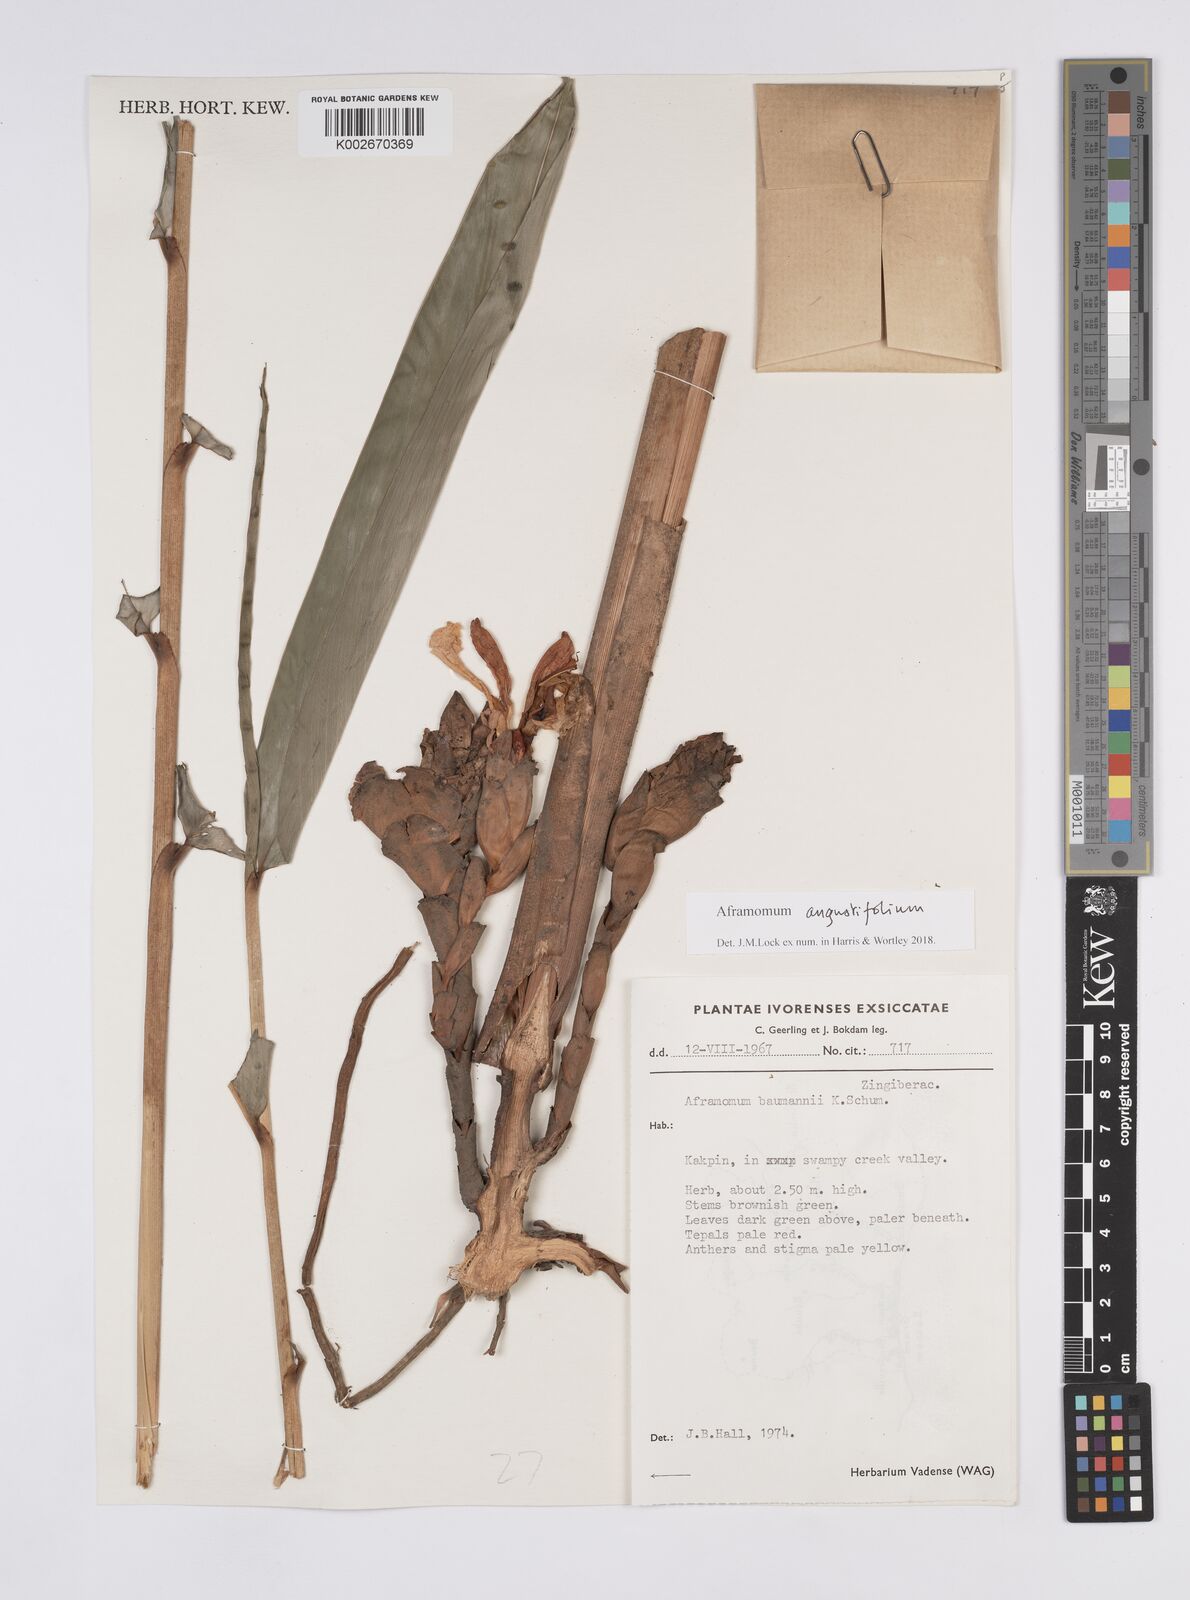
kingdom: Plantae
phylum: Tracheophyta
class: Liliopsida
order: Zingiberales
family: Zingiberaceae
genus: Aframomum
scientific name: Aframomum angustifolium
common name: Guinea grains
